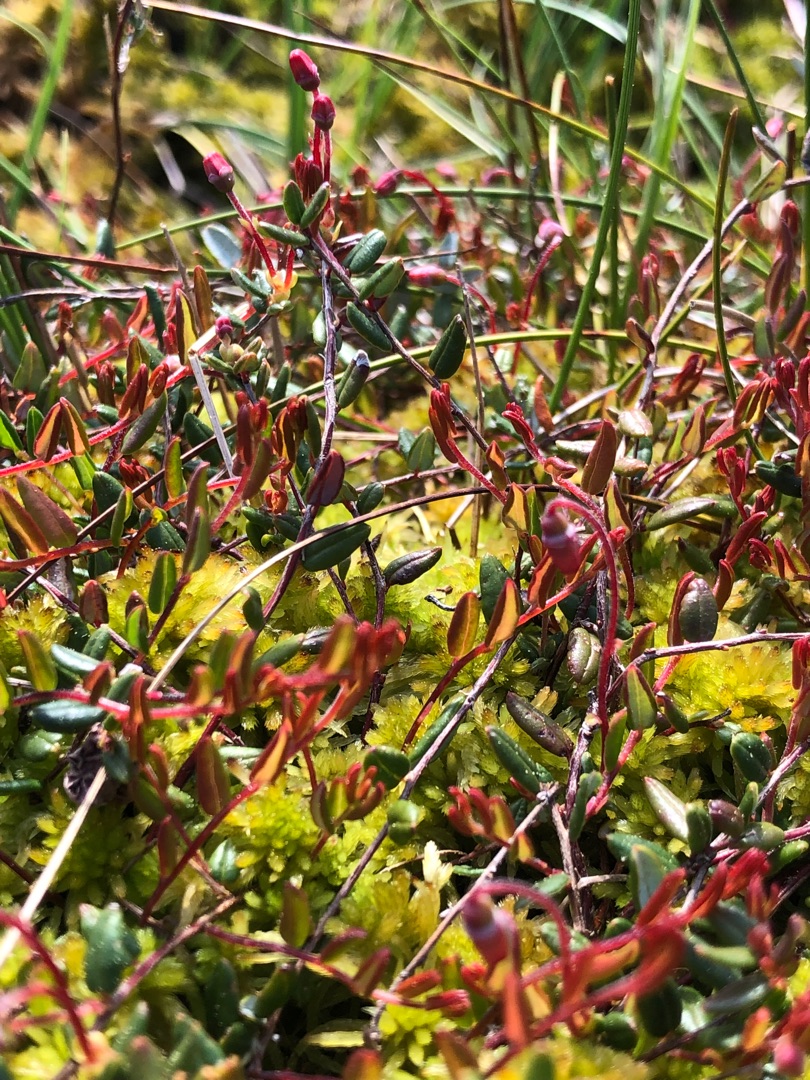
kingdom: Plantae
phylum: Tracheophyta
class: Magnoliopsida
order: Ericales
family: Ericaceae
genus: Vaccinium
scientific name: Vaccinium oxycoccos
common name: Tranebær
